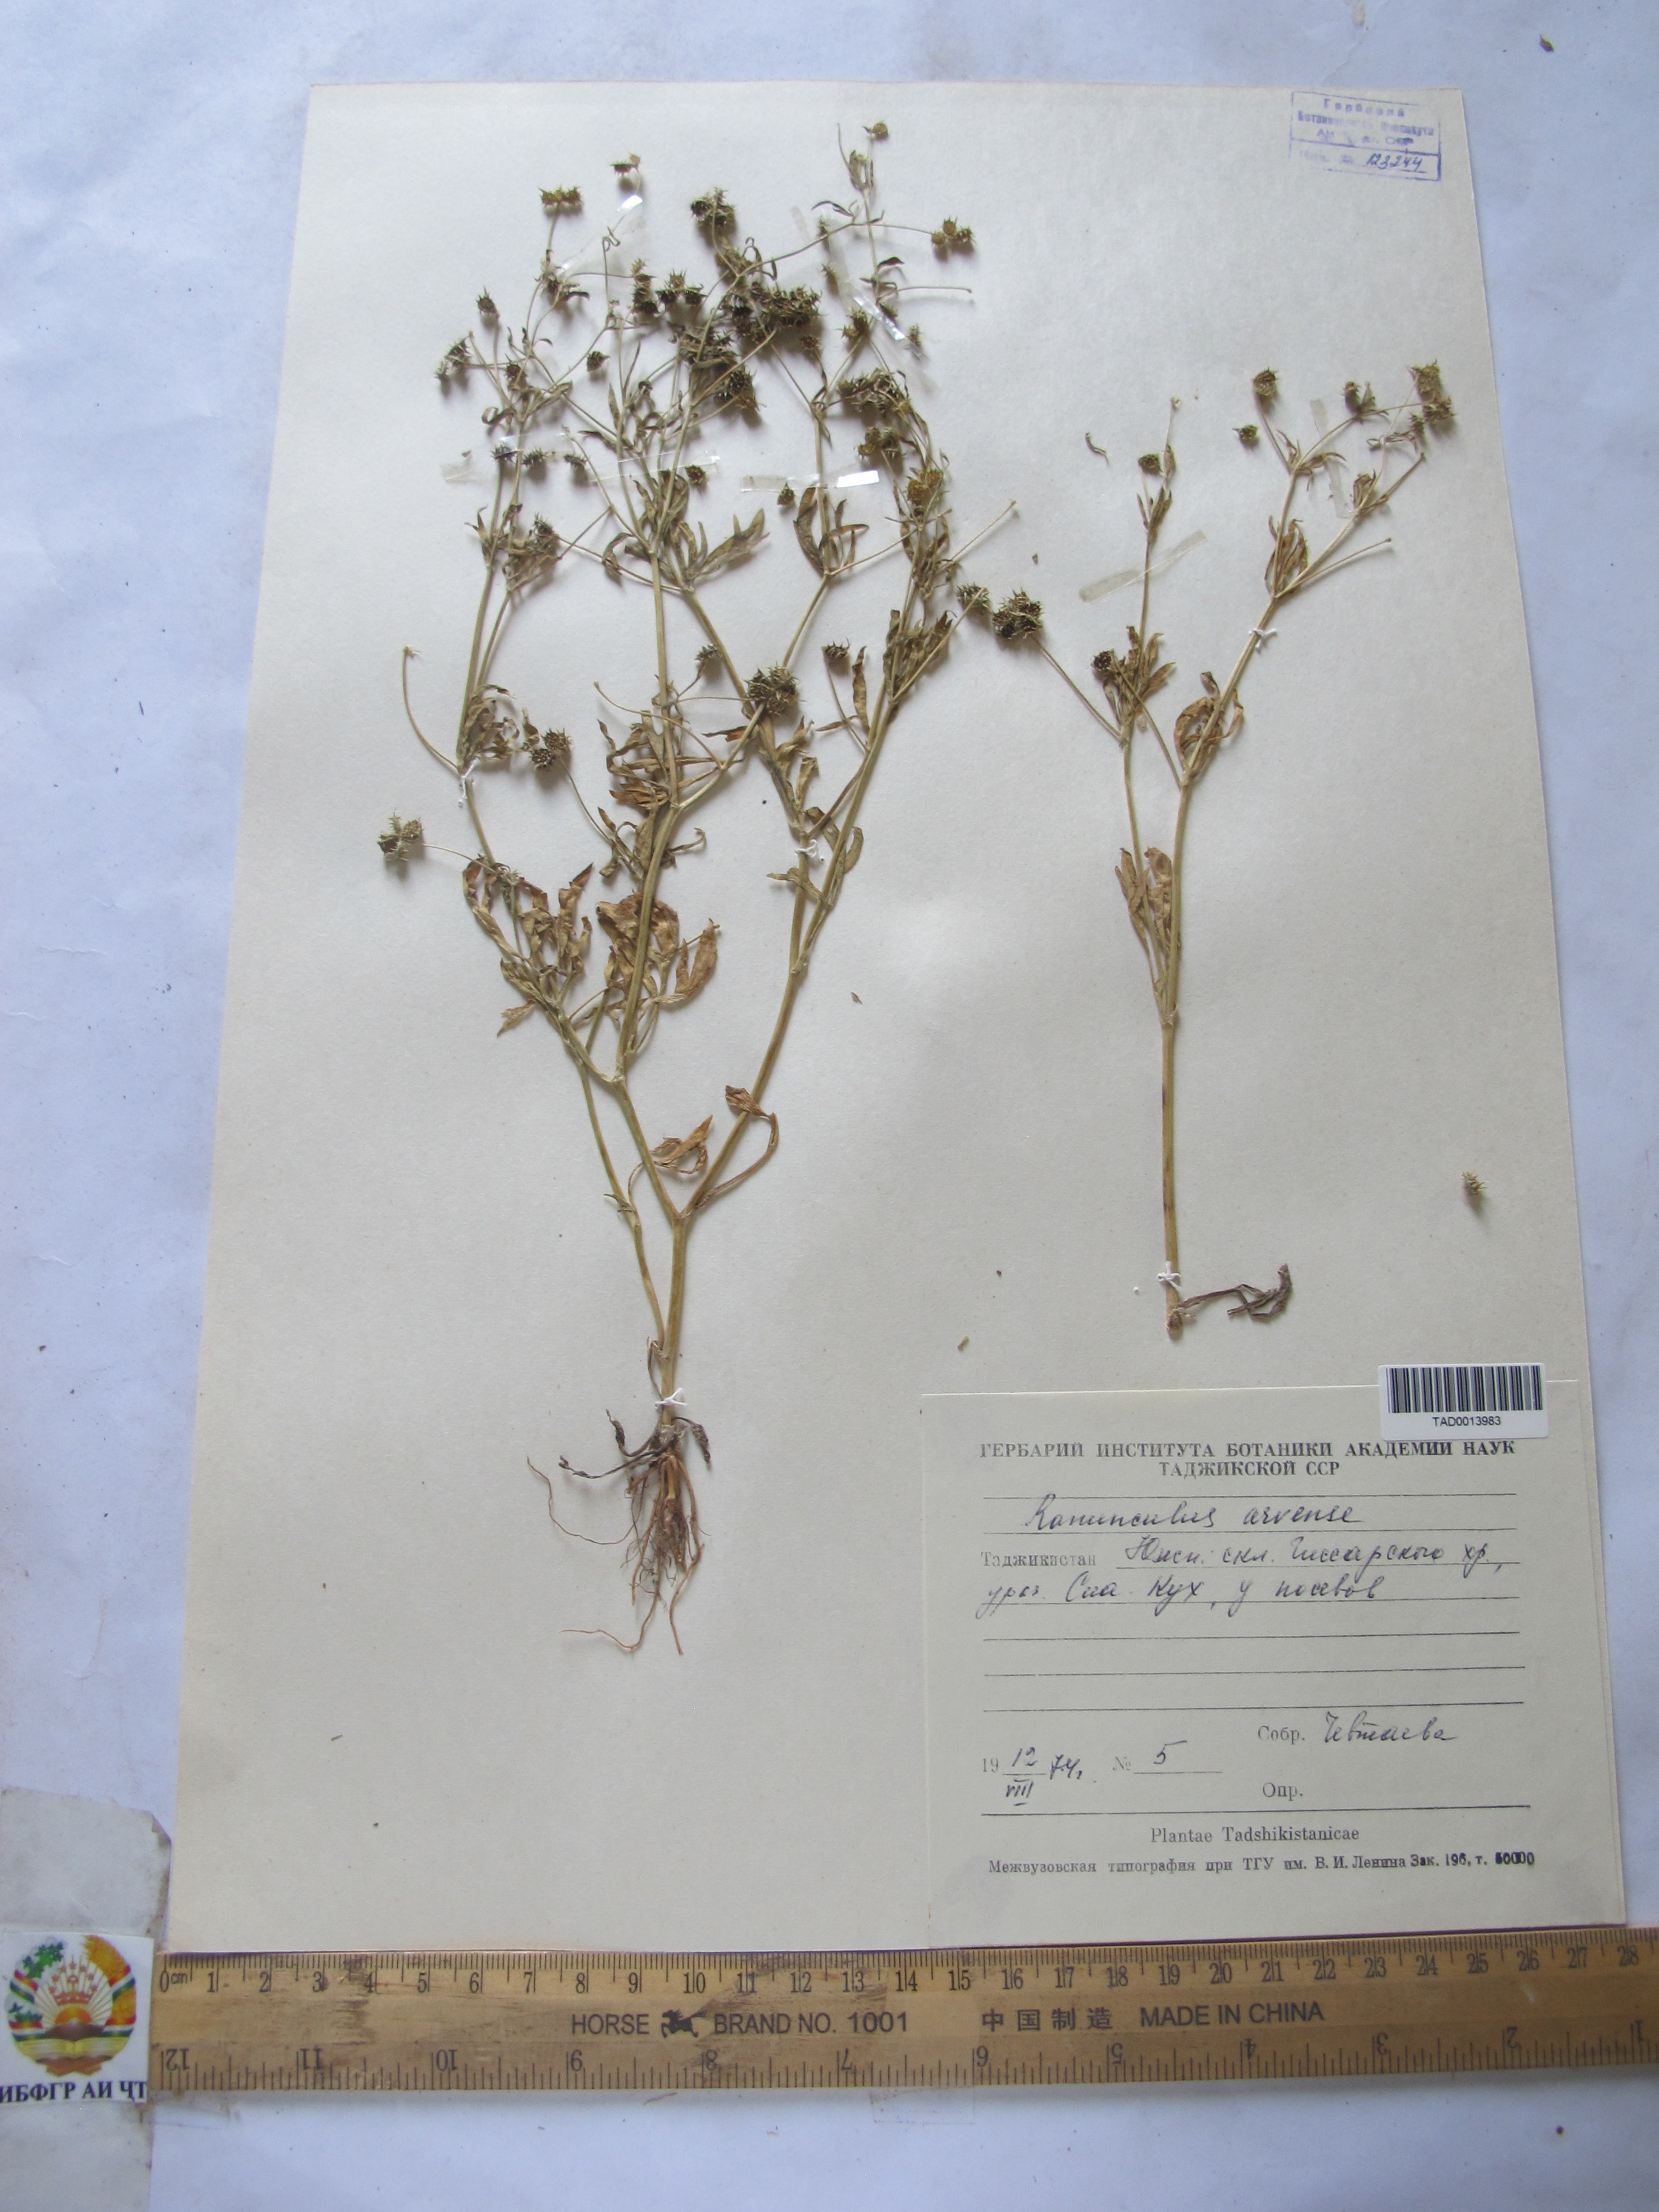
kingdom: Plantae
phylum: Tracheophyta
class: Magnoliopsida
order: Ranunculales
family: Ranunculaceae
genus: Ranunculus
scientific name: Ranunculus arvensis
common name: Corn buttercup
